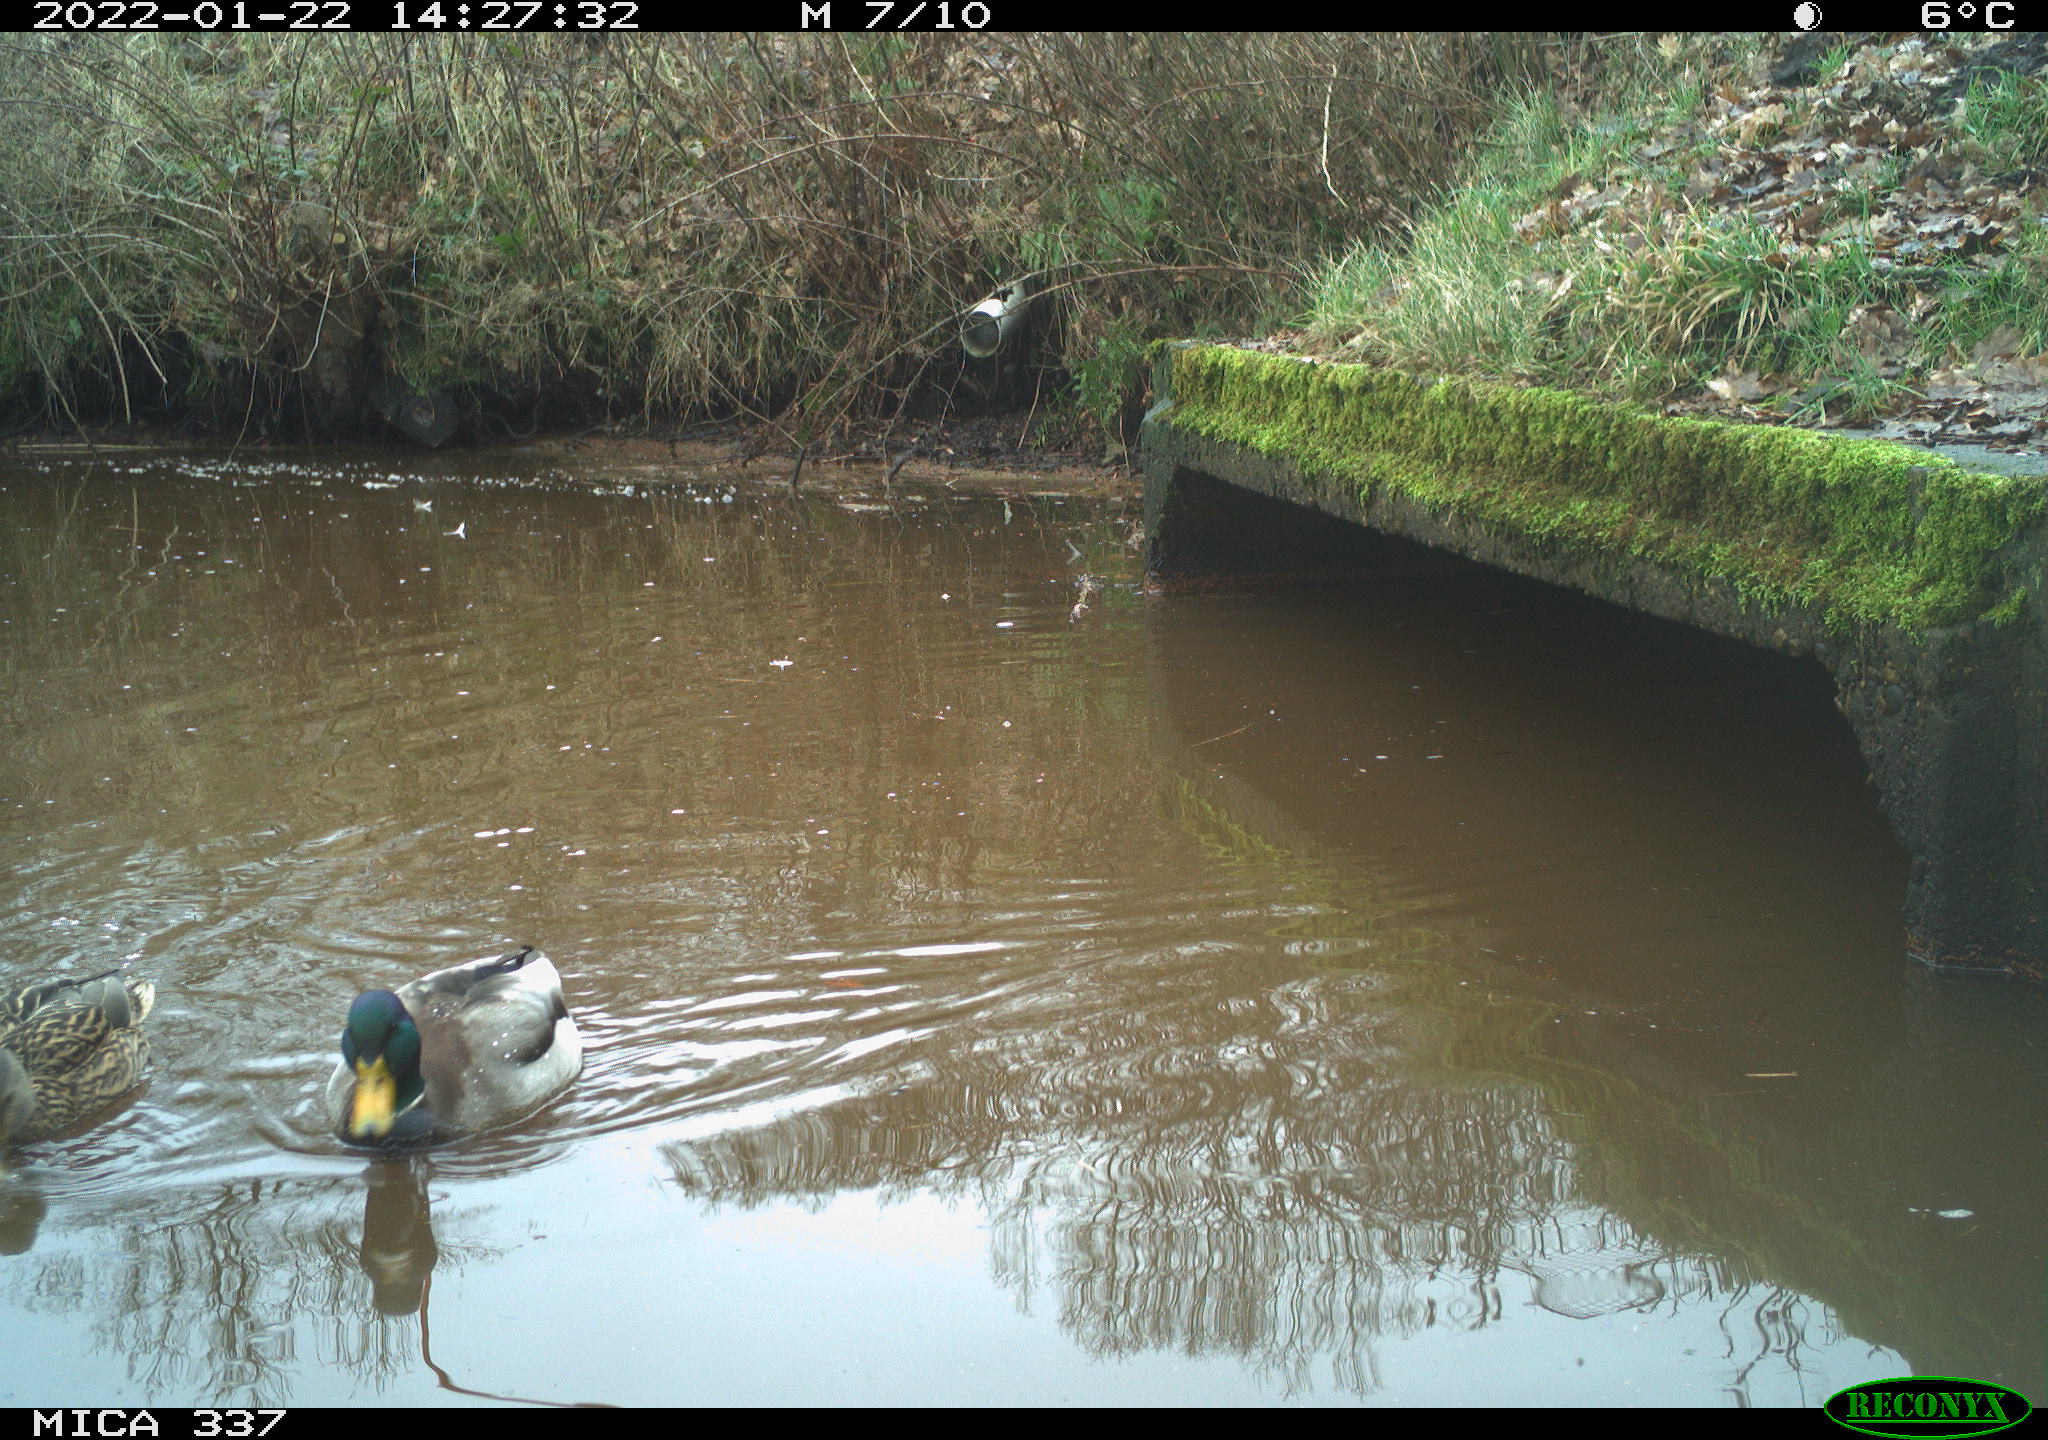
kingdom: Animalia
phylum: Chordata
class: Aves
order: Anseriformes
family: Anatidae
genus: Anas
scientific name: Anas platyrhynchos
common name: Mallard
